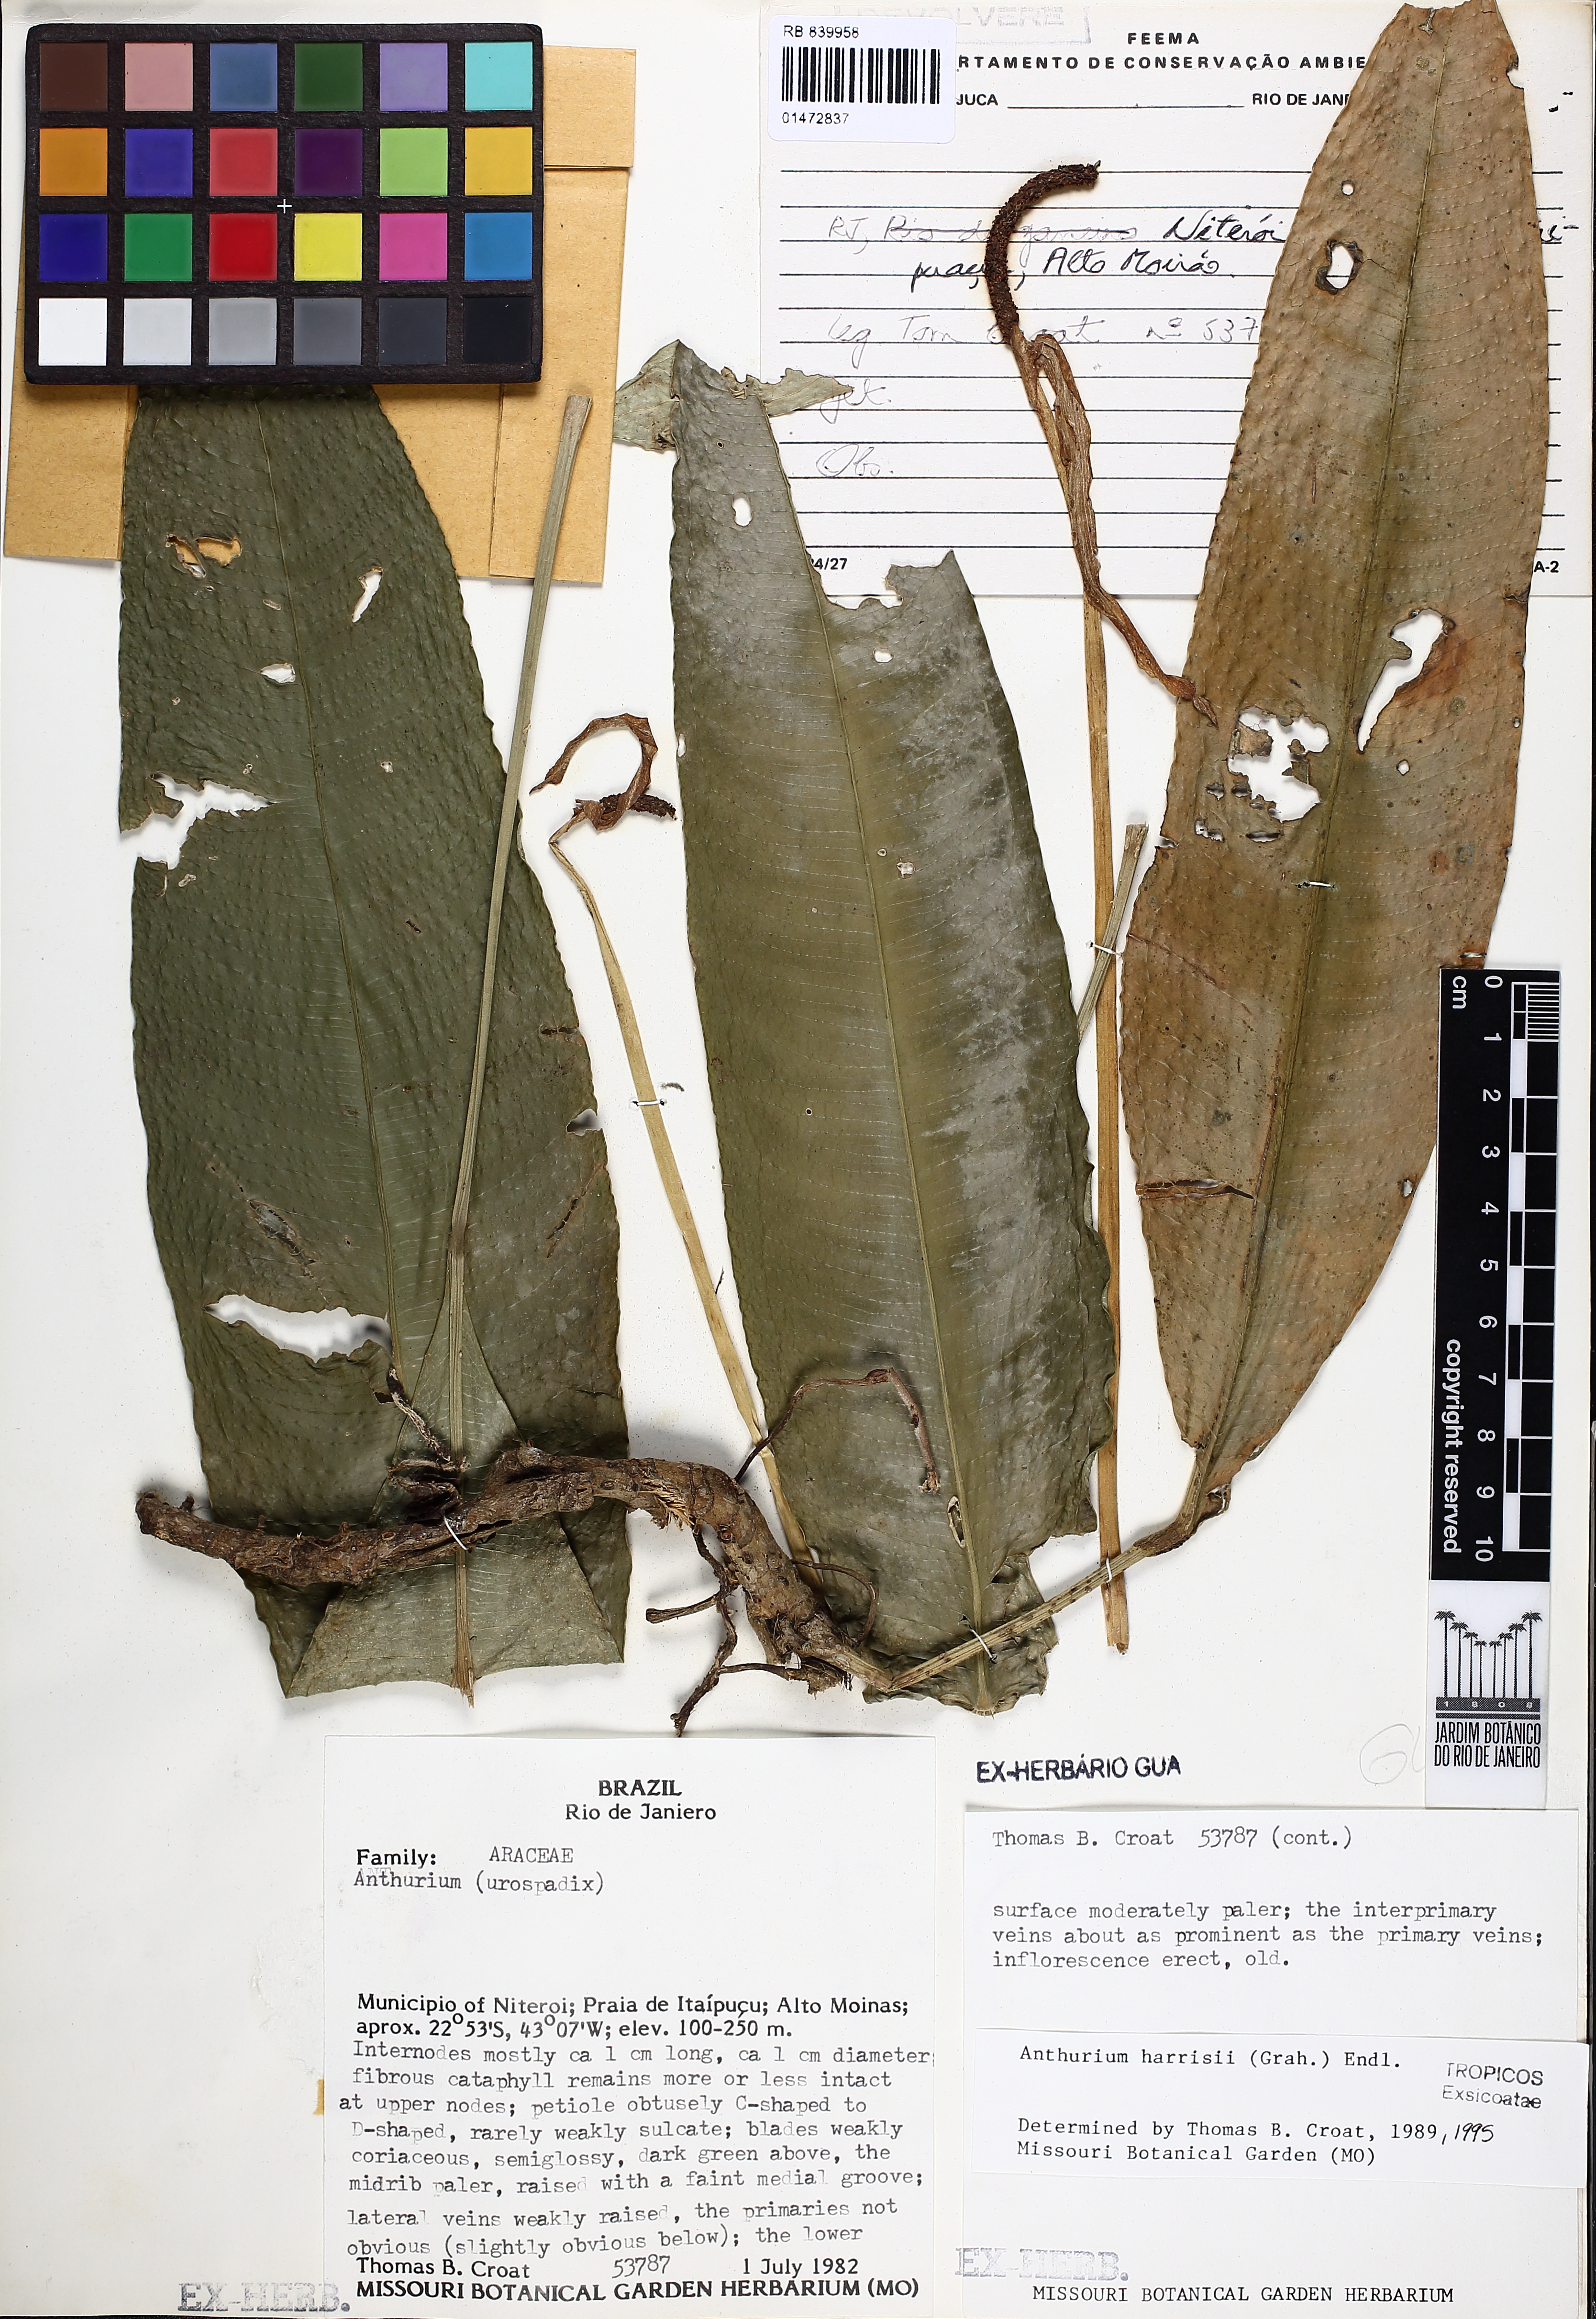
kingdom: Plantae
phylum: Tracheophyta
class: Liliopsida
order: Alismatales
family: Araceae
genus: Anthurium
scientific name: Anthurium harrisii
